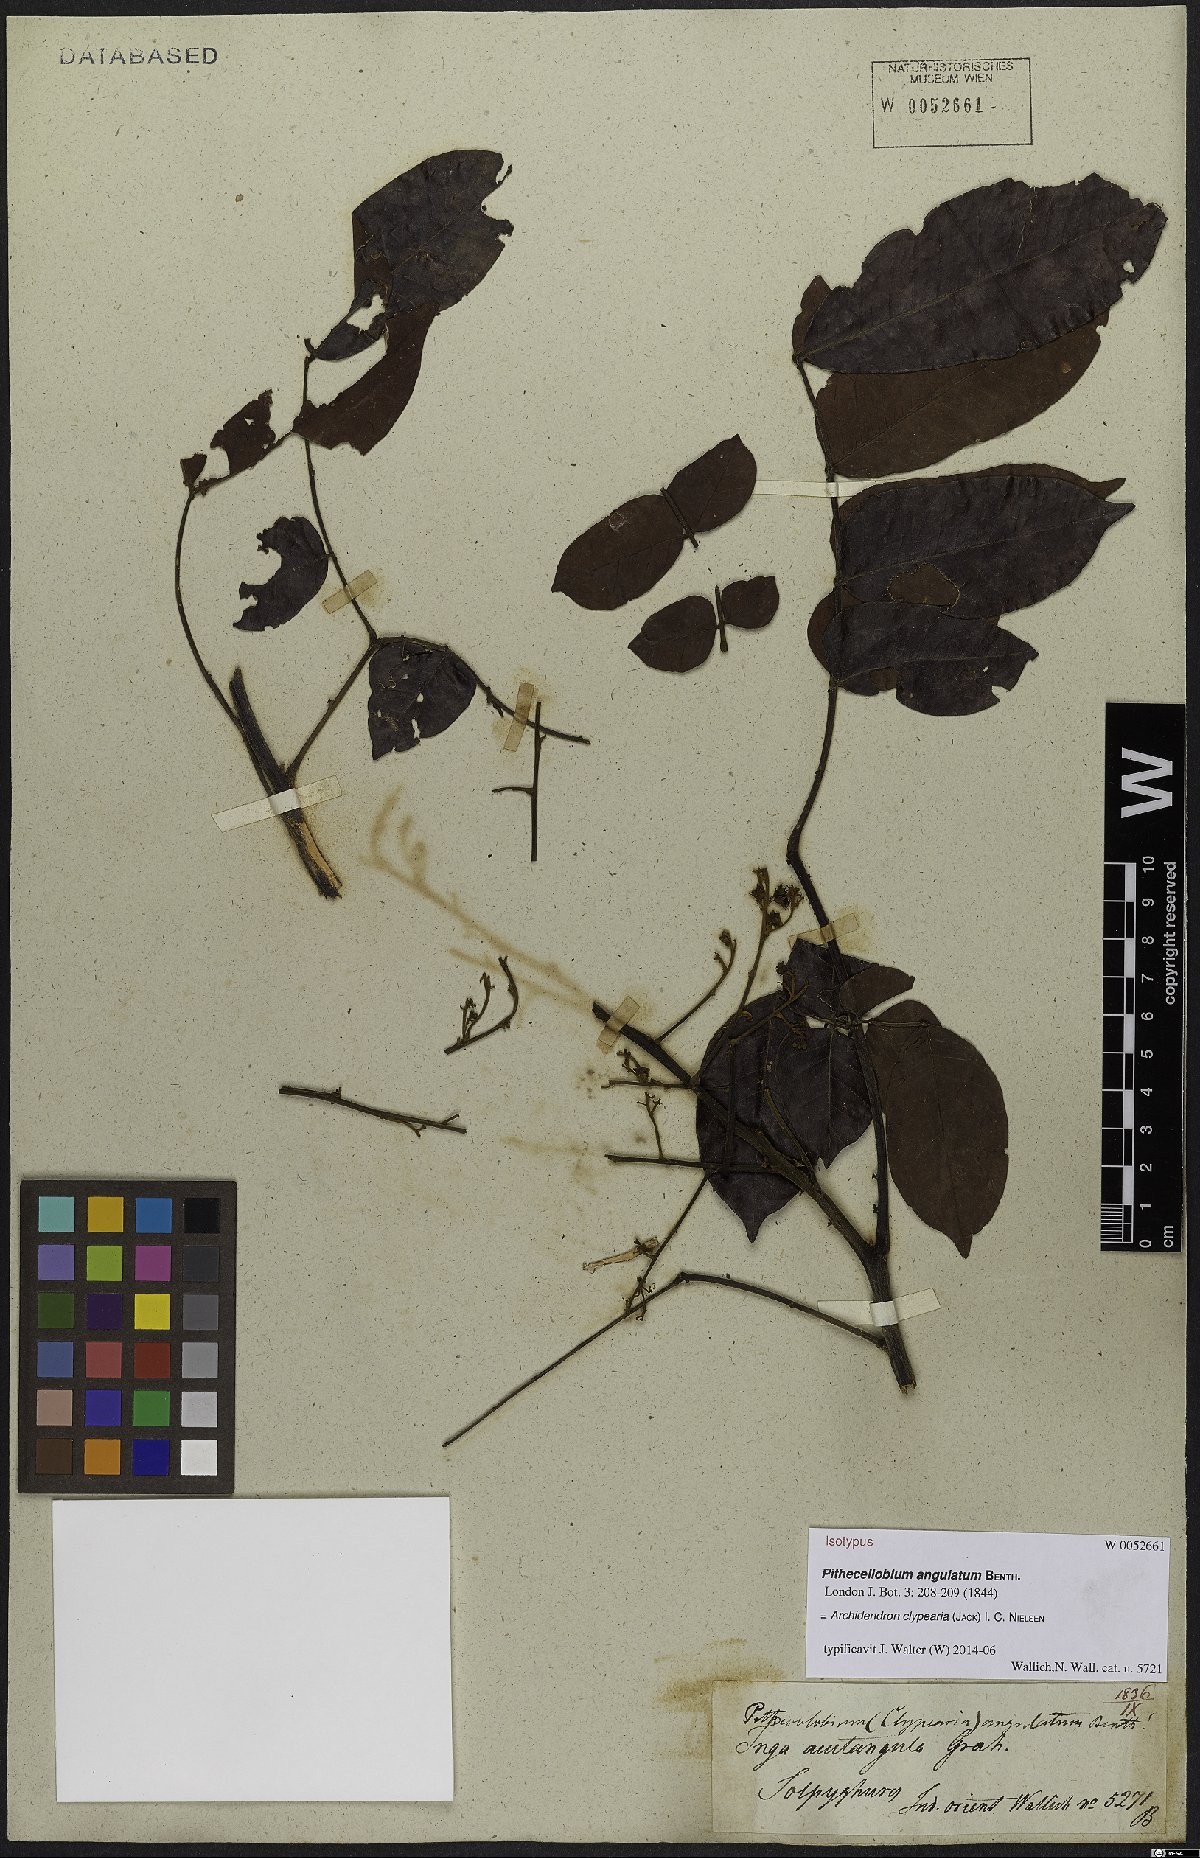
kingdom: Plantae
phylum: Tracheophyta
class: Magnoliopsida
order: Fabales
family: Fabaceae
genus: Archidendron
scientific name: Archidendron clypearia
